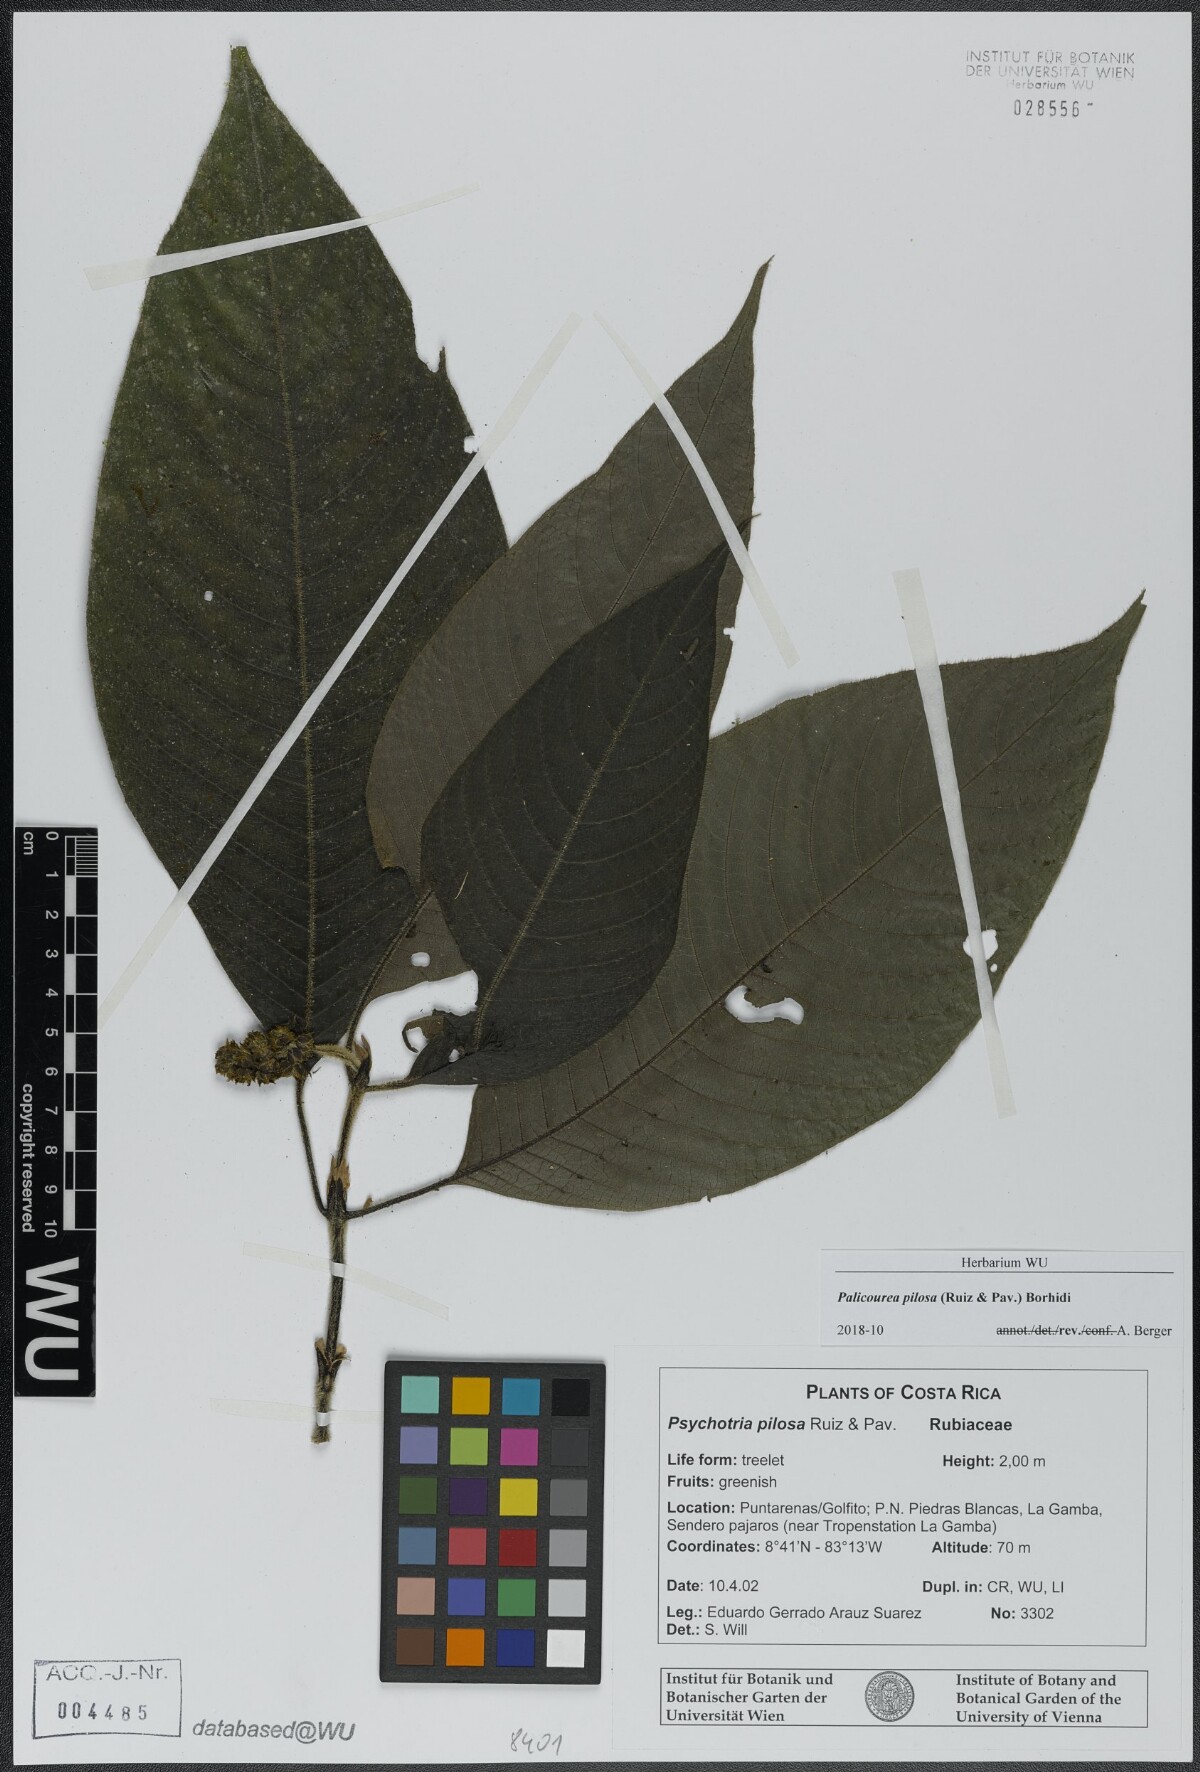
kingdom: Plantae
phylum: Tracheophyta
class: Magnoliopsida
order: Gentianales
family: Rubiaceae
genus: Palicourea
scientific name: Palicourea pilosa
